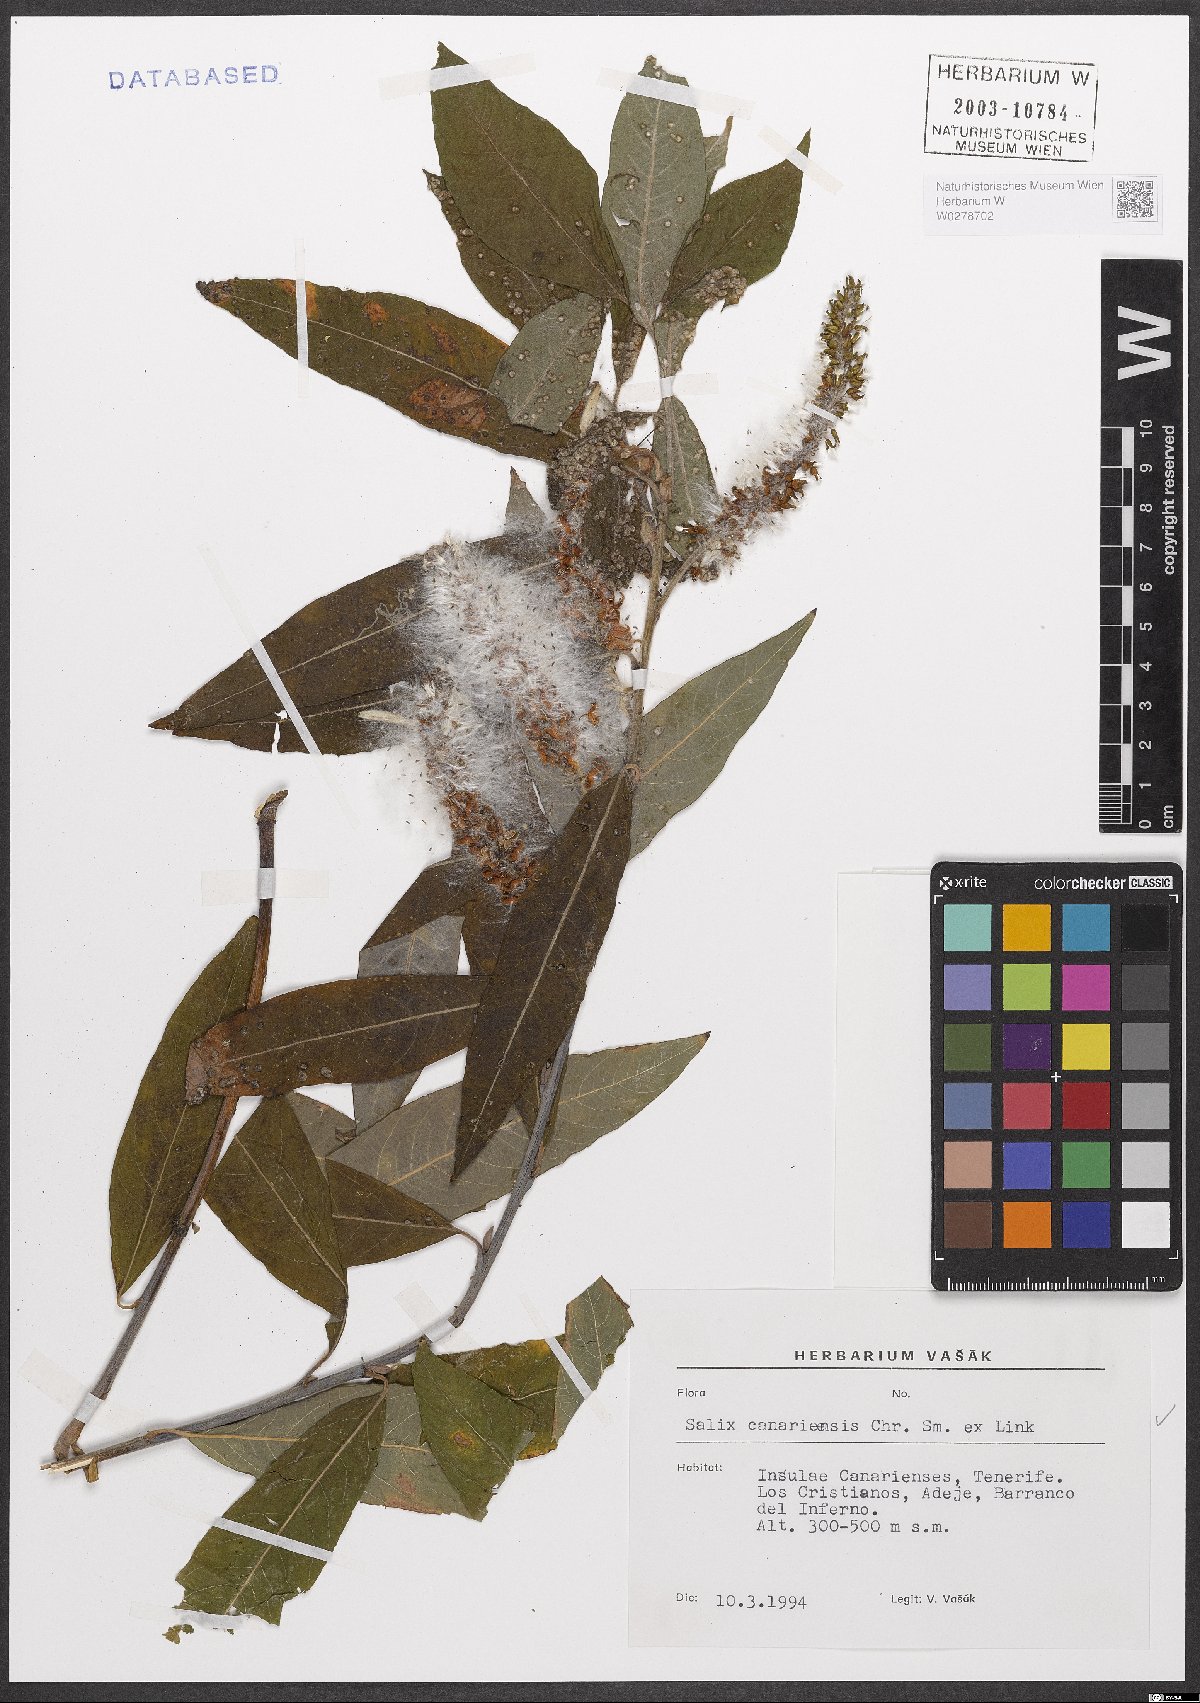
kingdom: Plantae
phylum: Tracheophyta
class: Magnoliopsida
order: Malpighiales
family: Salicaceae
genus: Salix
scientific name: Salix canariensis
